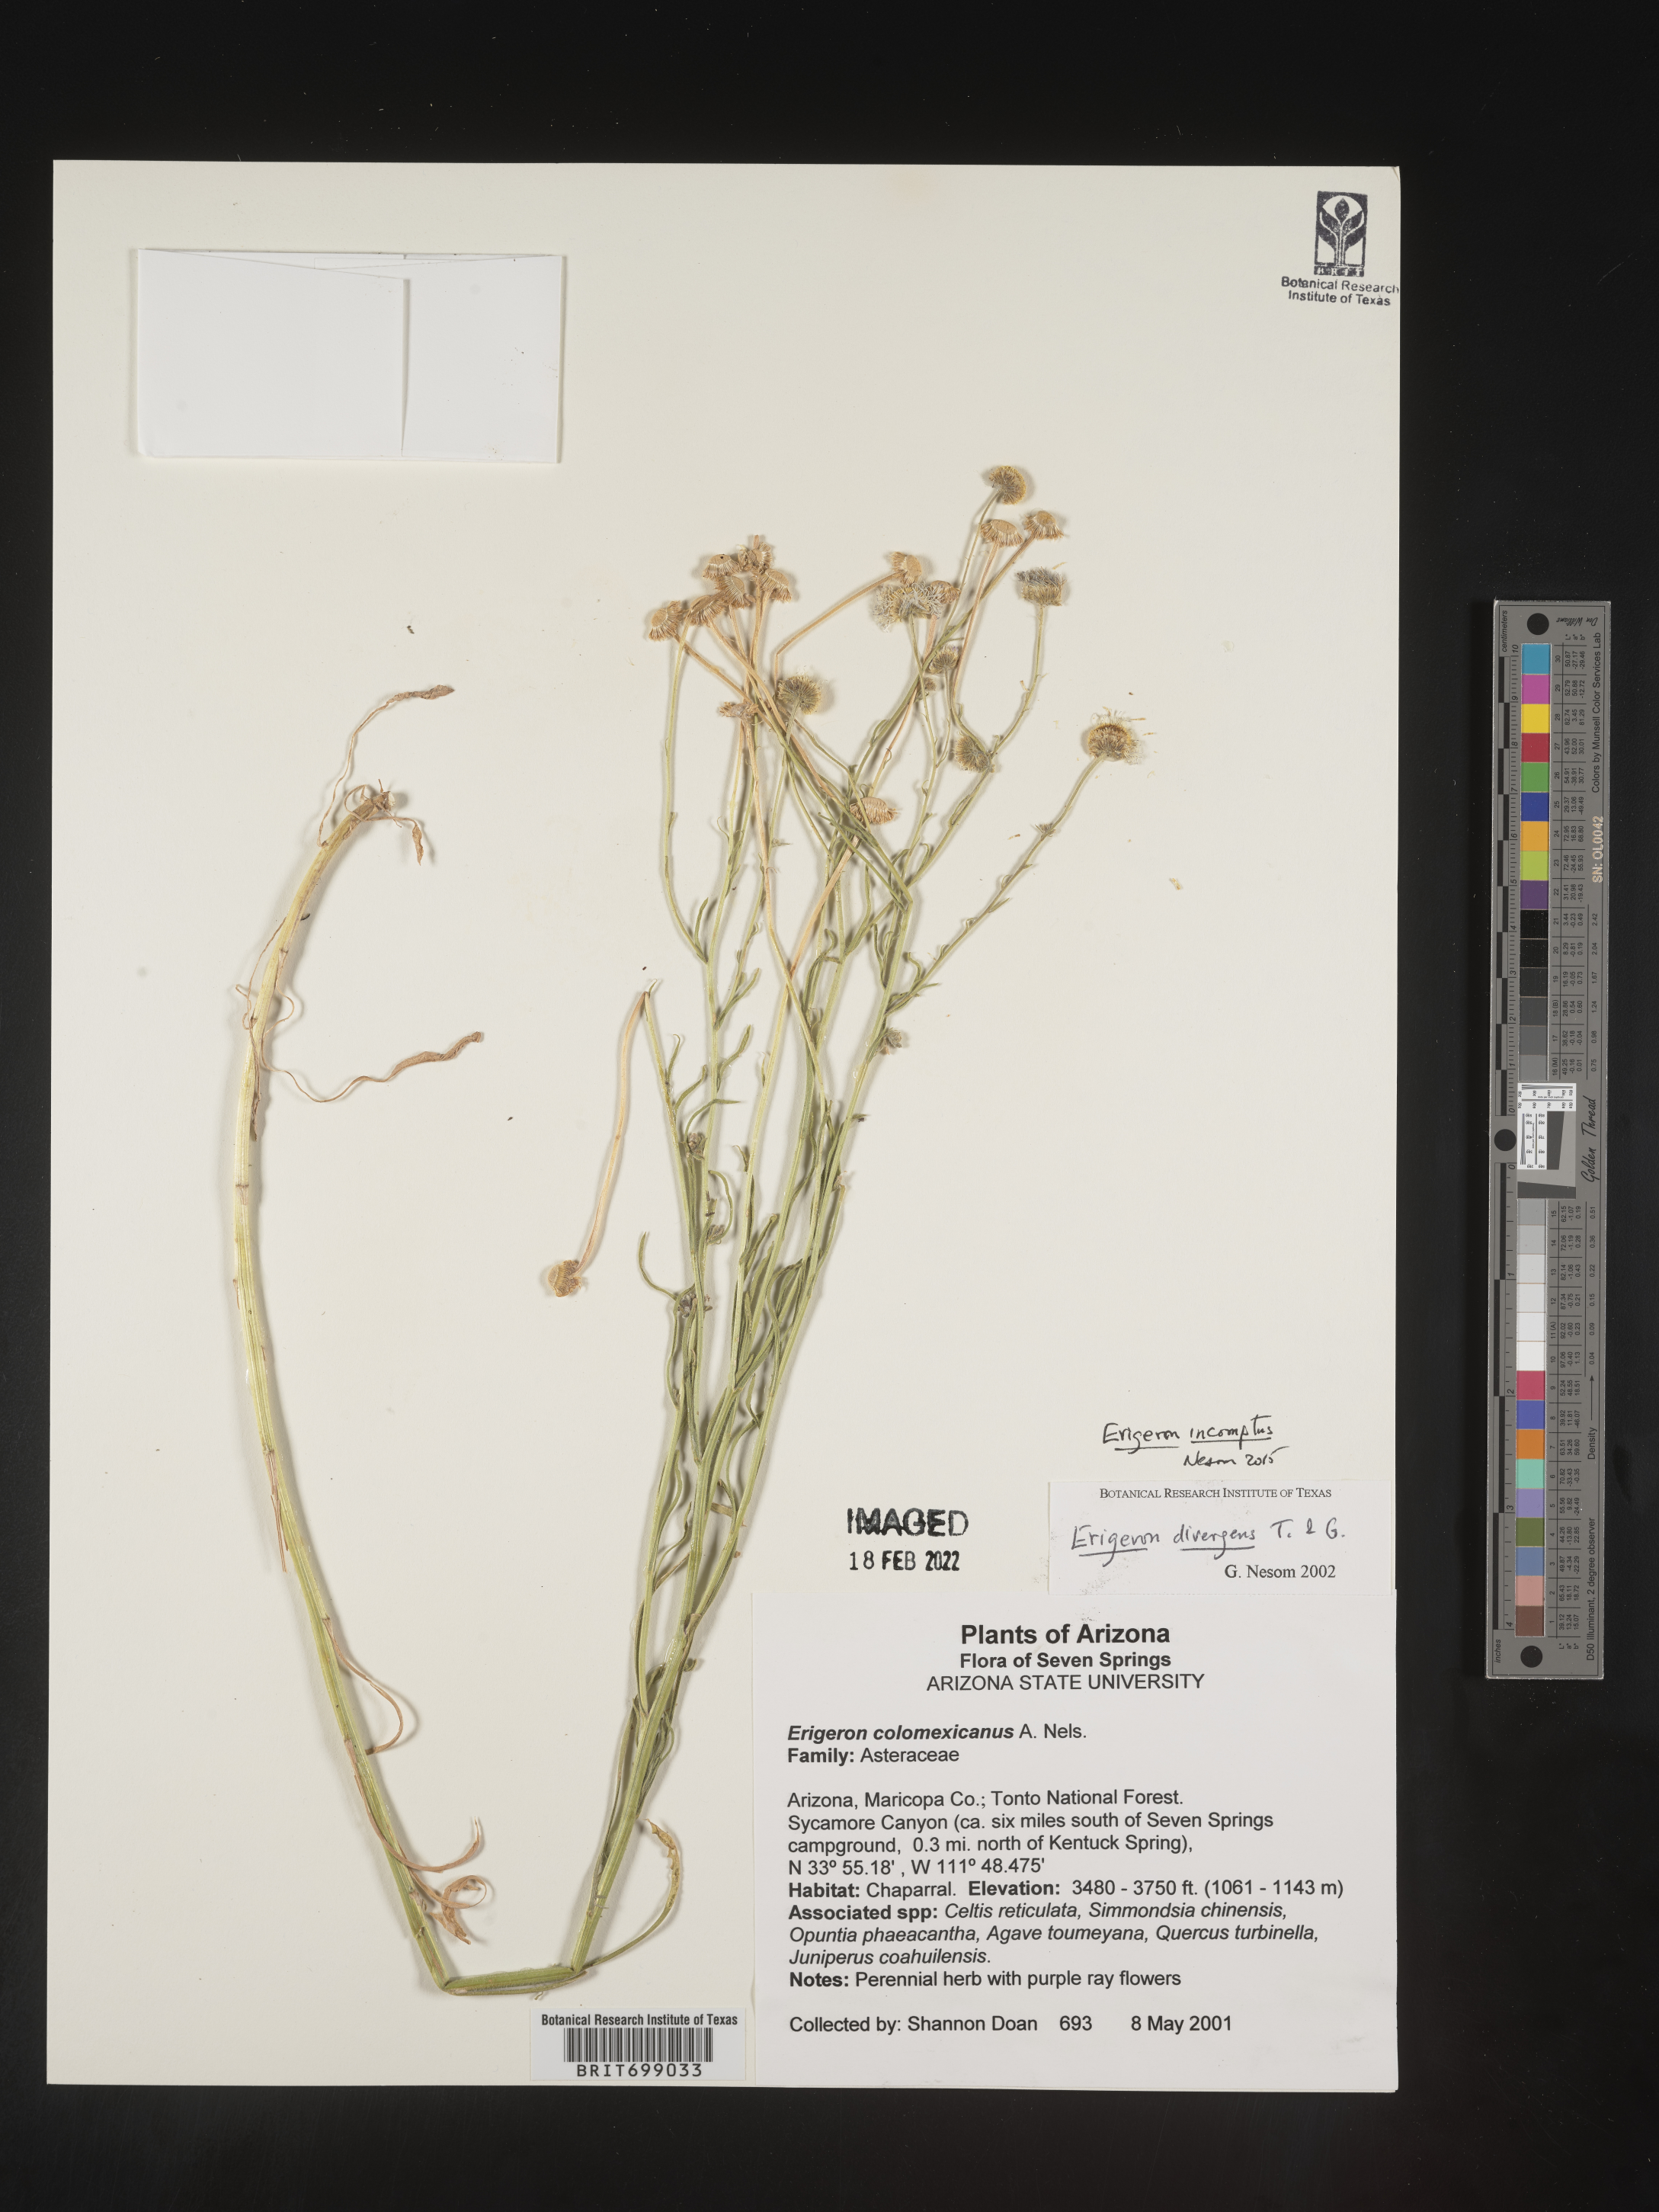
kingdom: Plantae
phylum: Tracheophyta
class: Magnoliopsida
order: Asterales
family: Asteraceae
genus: Erigeron
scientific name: Erigeron tracyi
